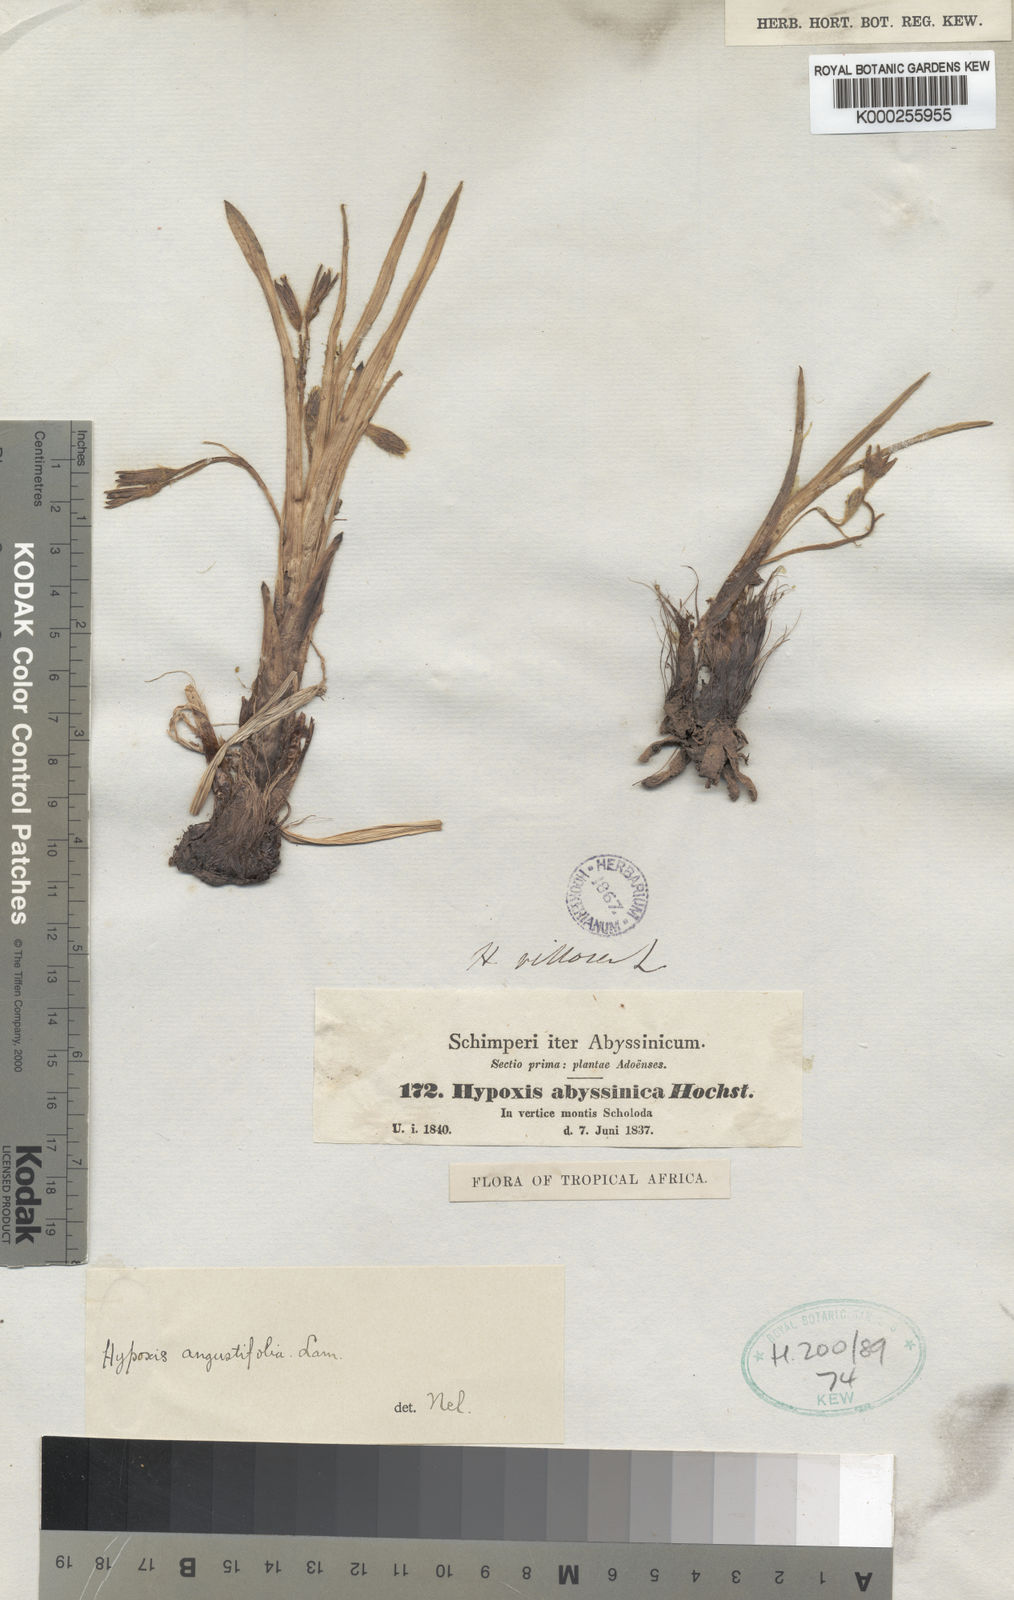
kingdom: Plantae
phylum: Tracheophyta
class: Liliopsida
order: Asparagales
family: Hypoxidaceae
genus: Hypoxis
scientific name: Hypoxis angustifolia
